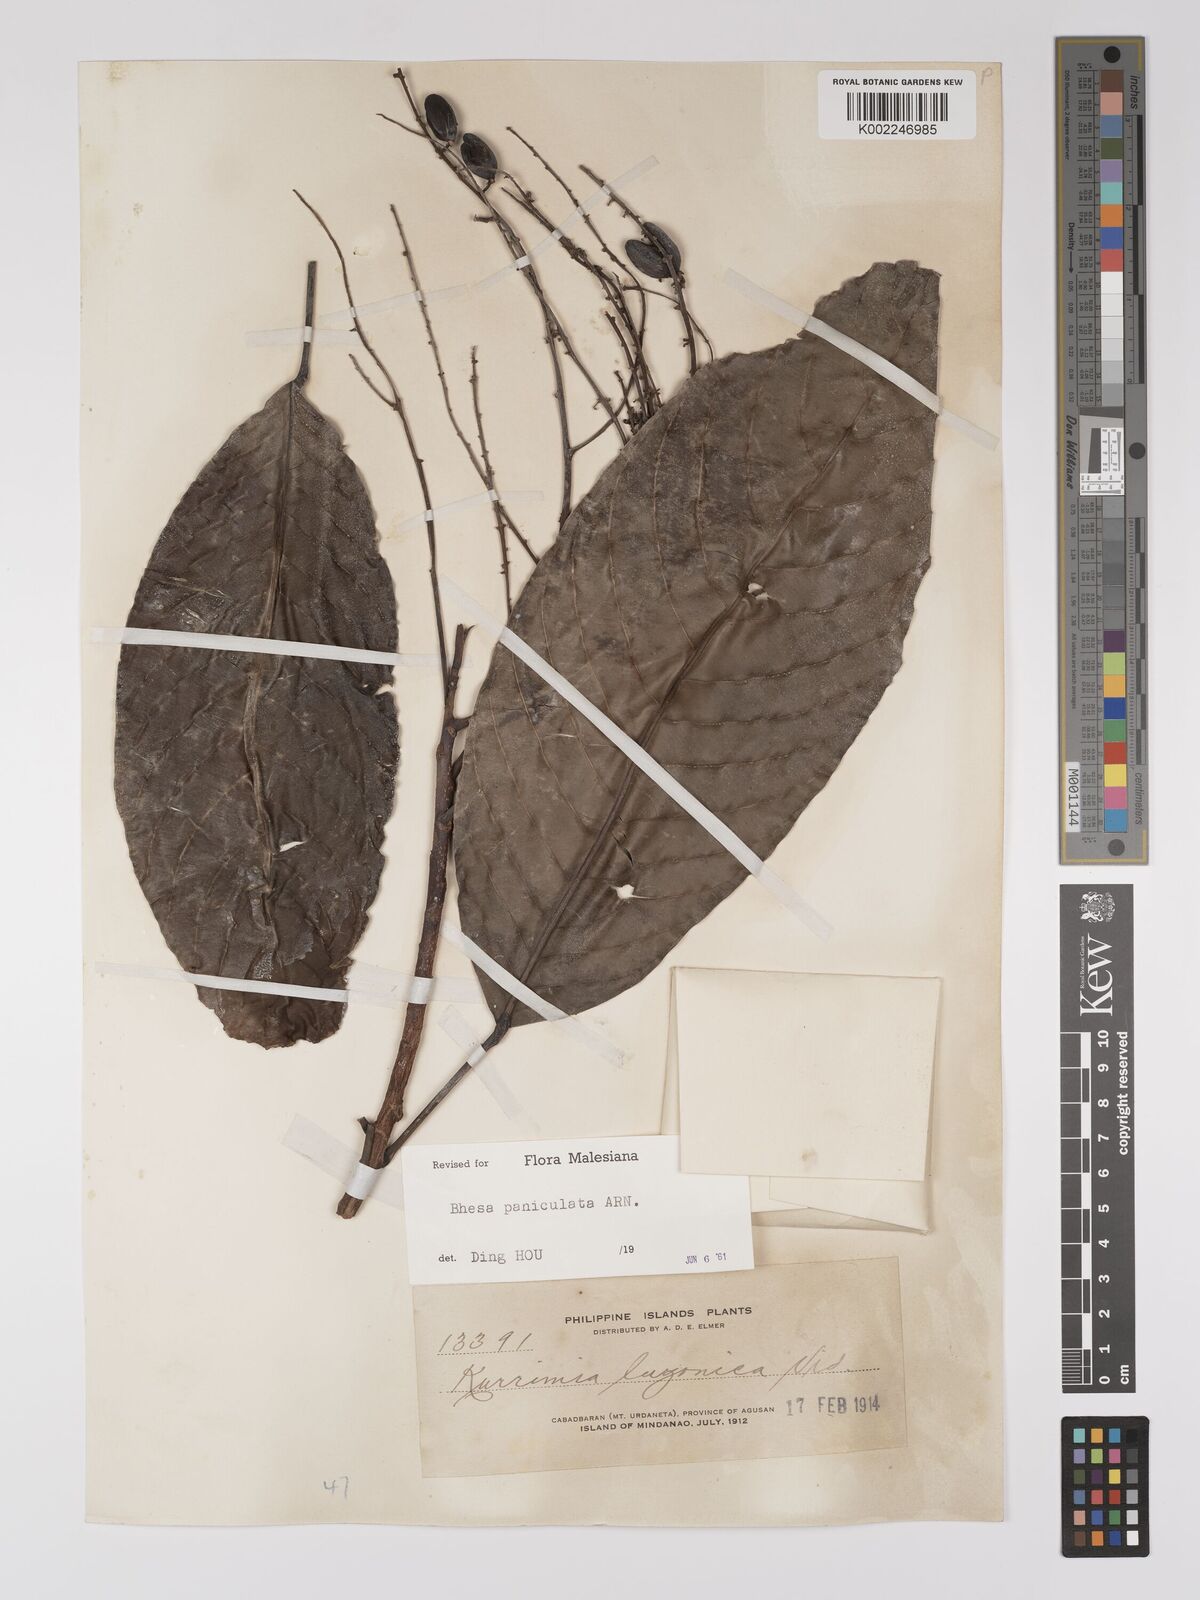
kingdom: Plantae
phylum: Tracheophyta
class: Magnoliopsida
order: Malpighiales
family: Centroplacaceae
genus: Bhesa
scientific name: Bhesa paniculata
